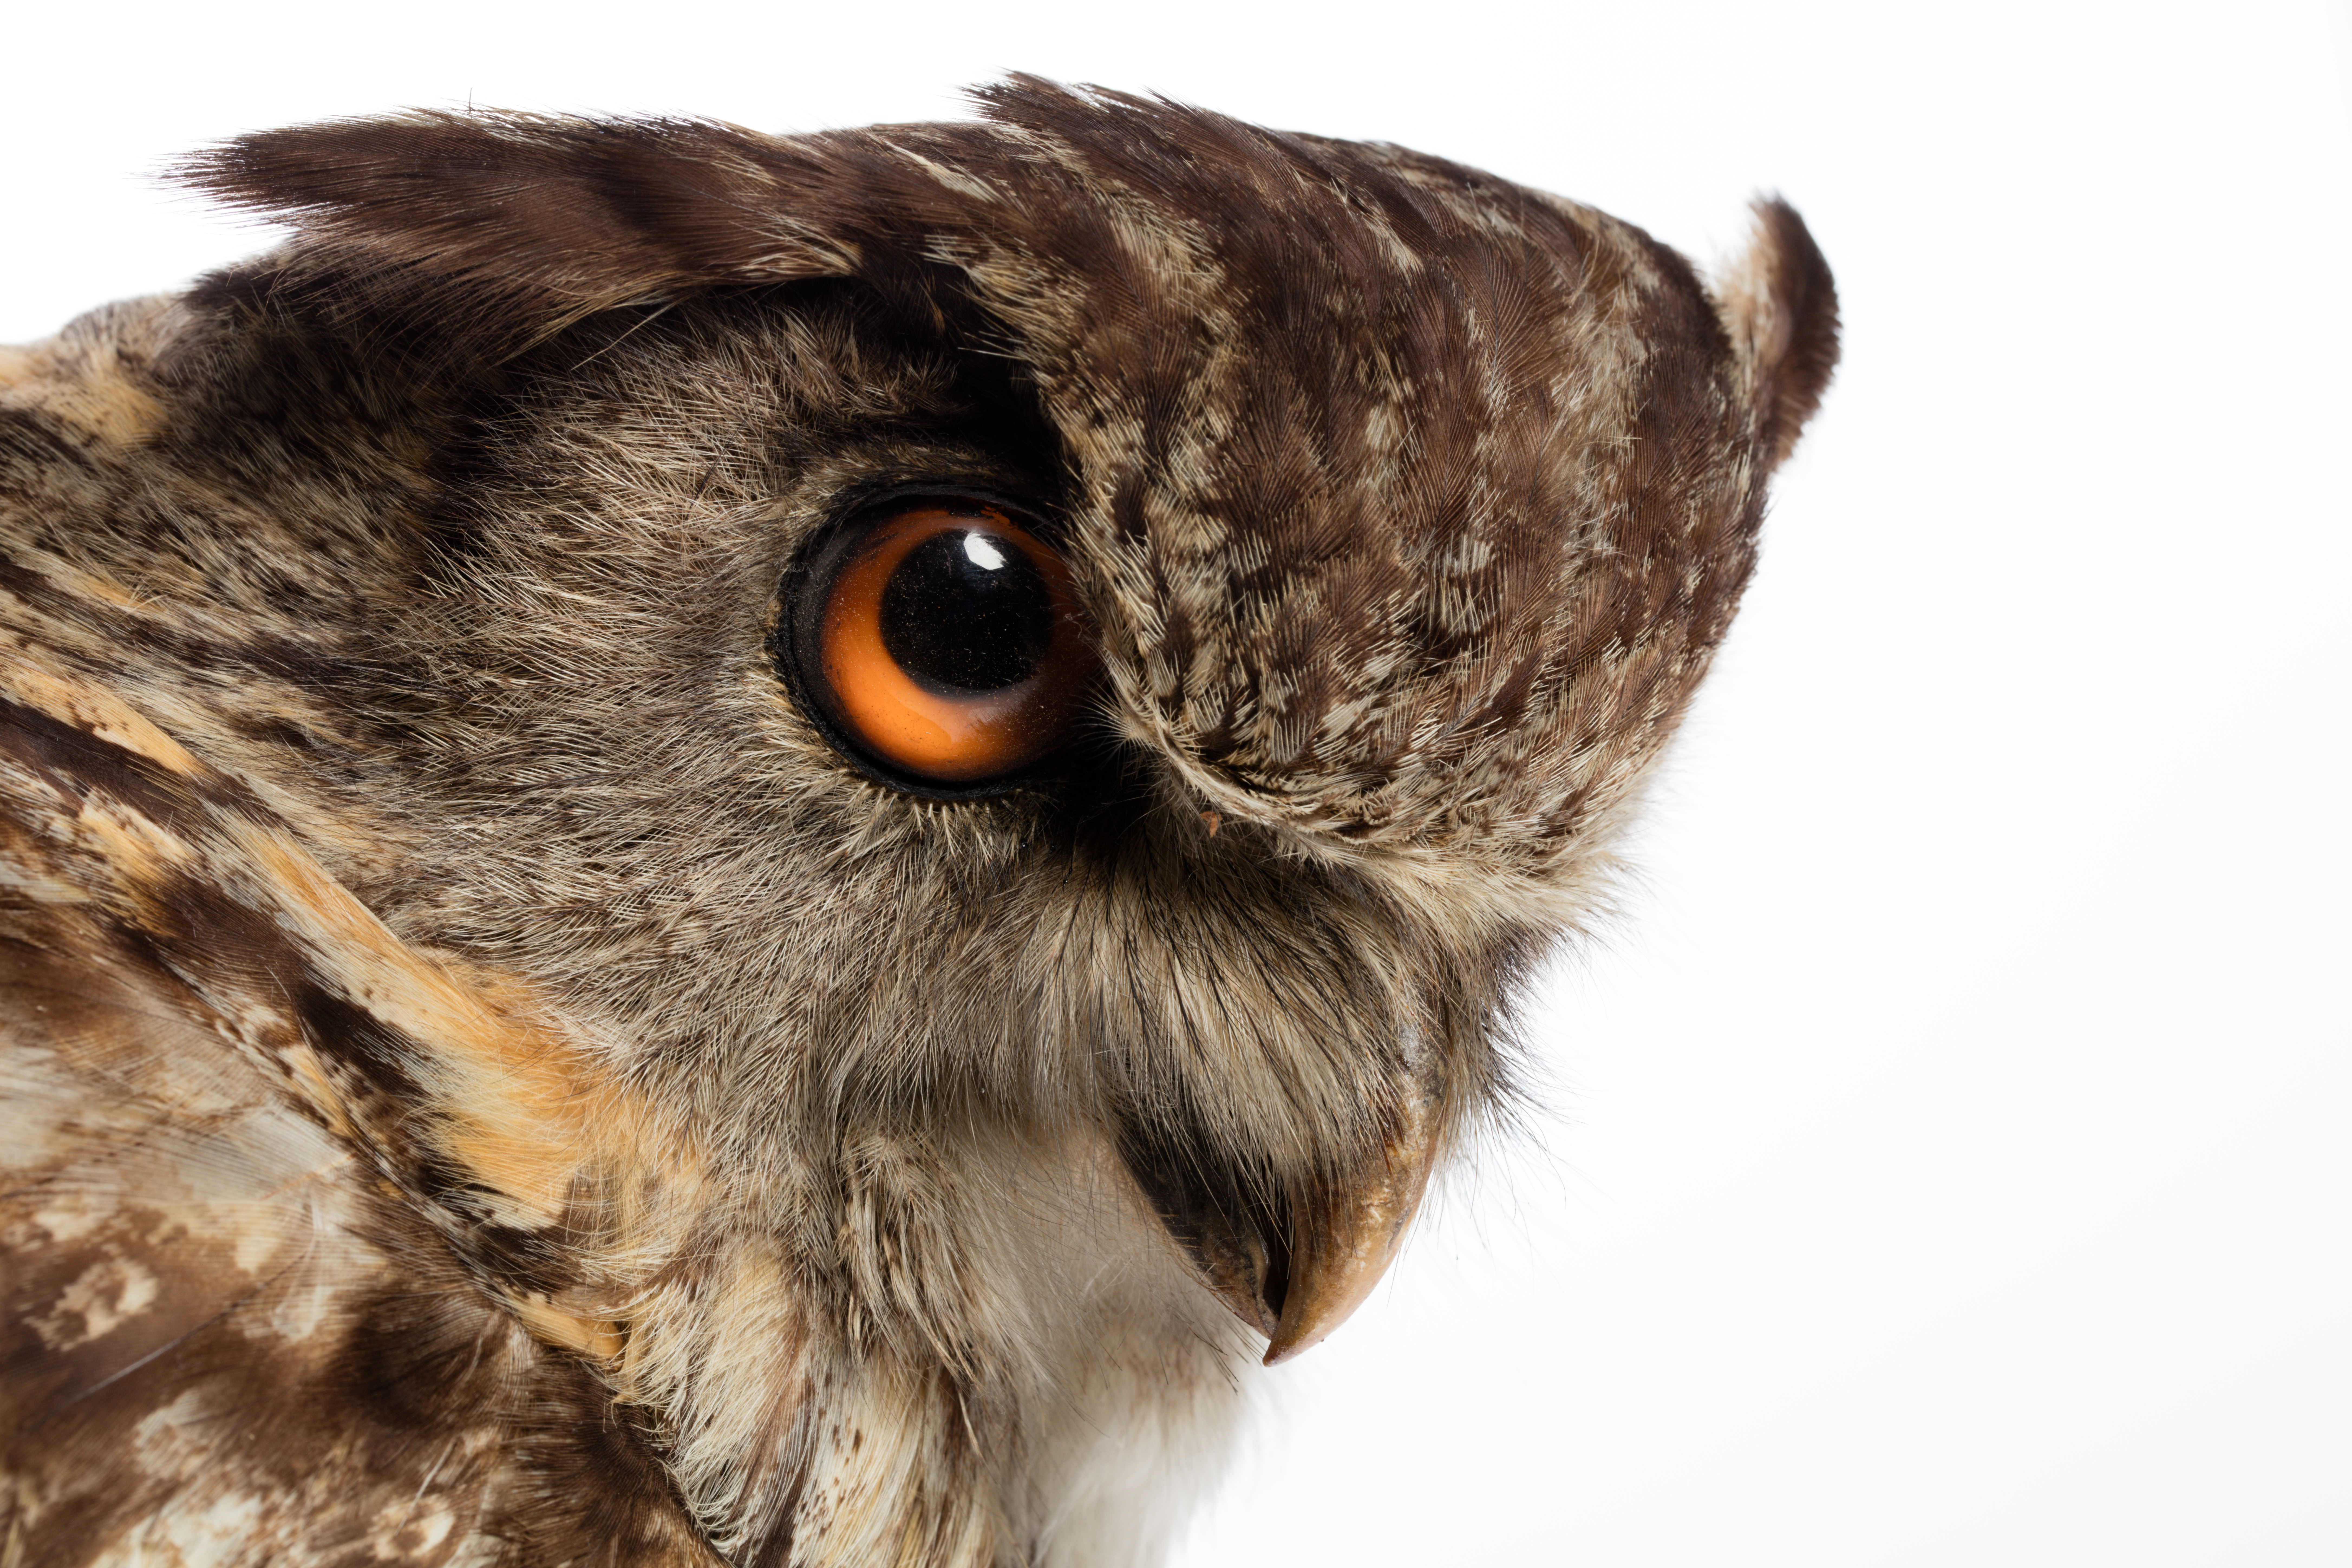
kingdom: Animalia
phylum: Chordata
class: Aves
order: Strigiformes
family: Strigidae
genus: Bubo
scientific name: Bubo bubo
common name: Eurasian eagle-owl
